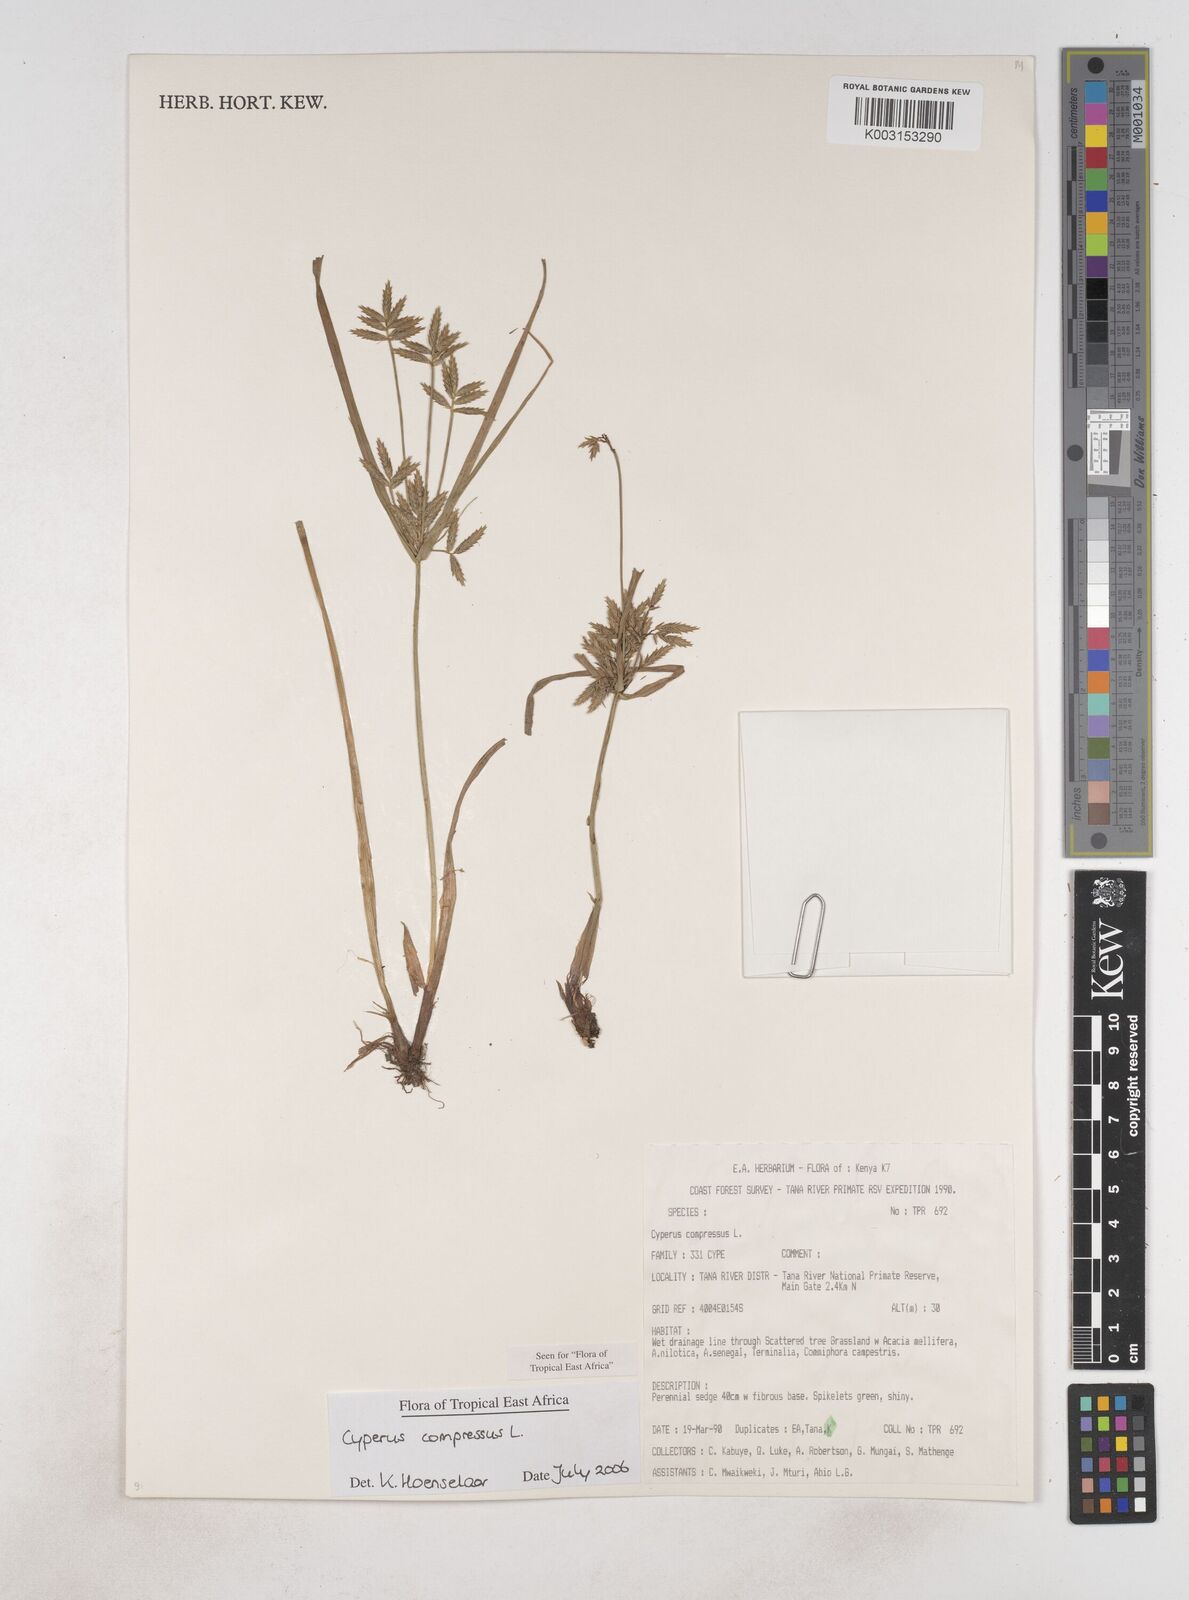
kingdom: Plantae
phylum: Tracheophyta
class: Liliopsida
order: Poales
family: Cyperaceae
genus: Cyperus
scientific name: Cyperus compressus
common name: Poorland flatsedge
